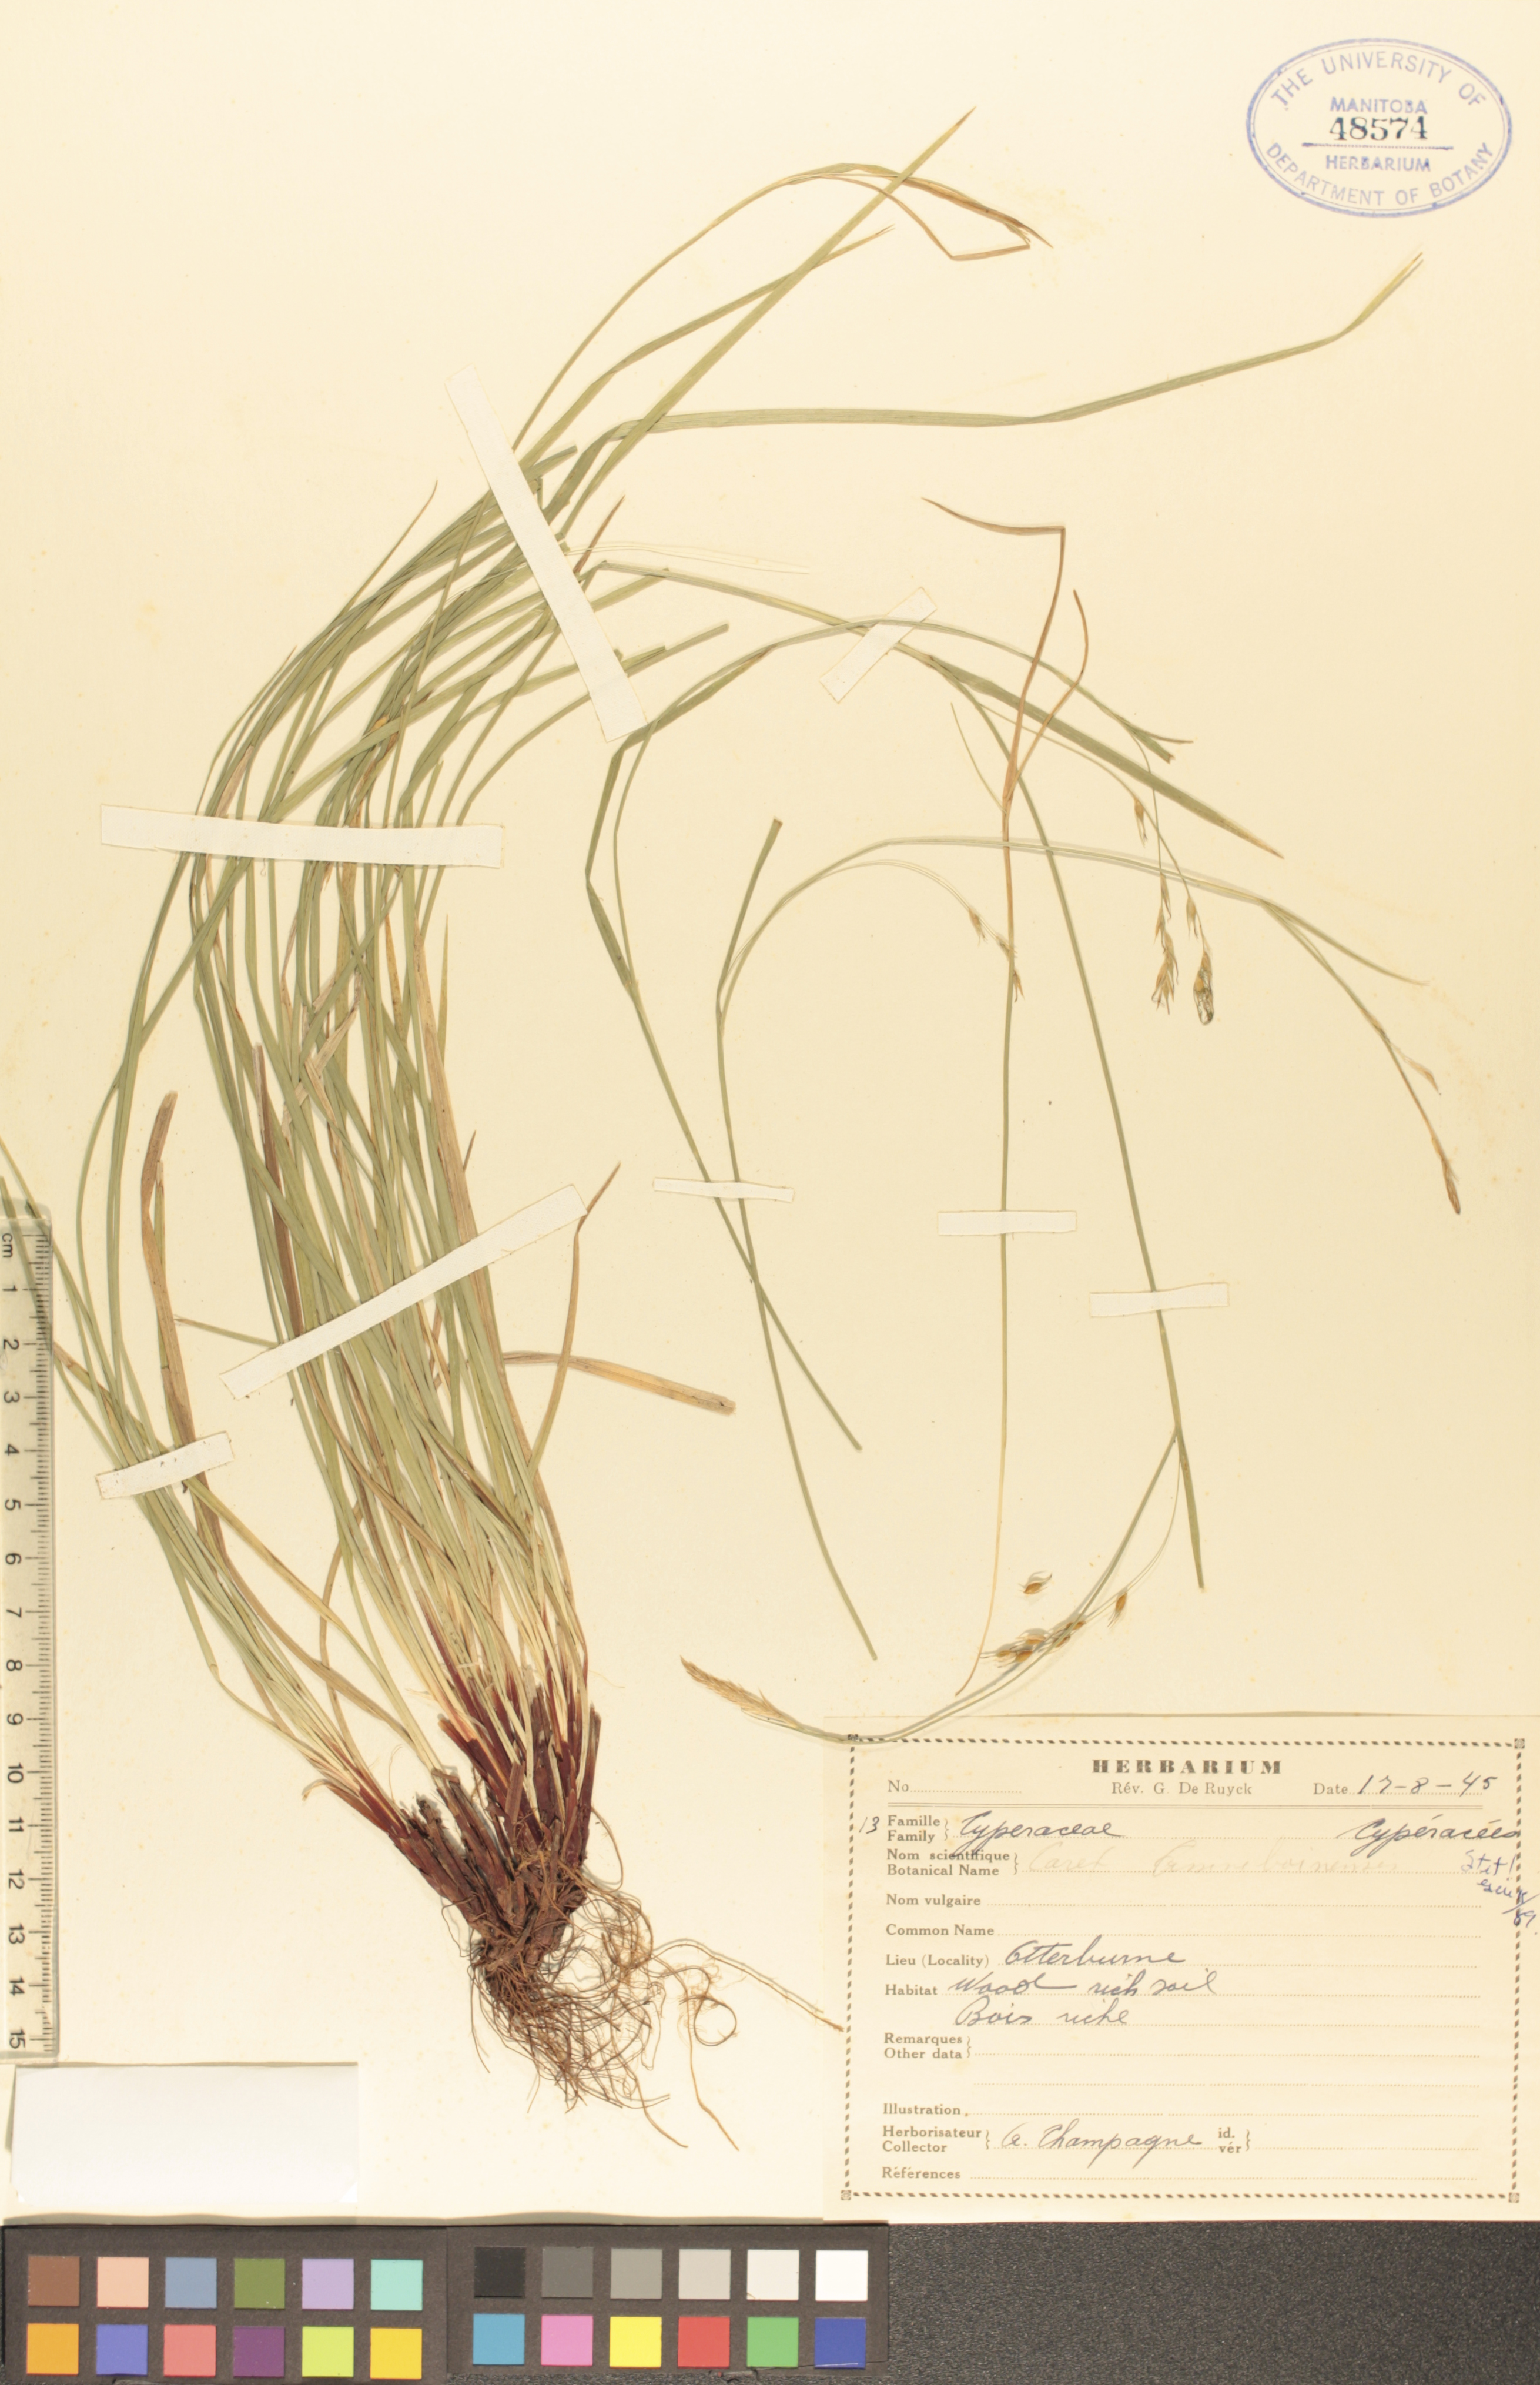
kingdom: Plantae
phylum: Tracheophyta
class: Liliopsida
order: Poales
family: Cyperaceae
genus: Carex
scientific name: Carex assiniboinensis
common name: Assiniboia sedge
